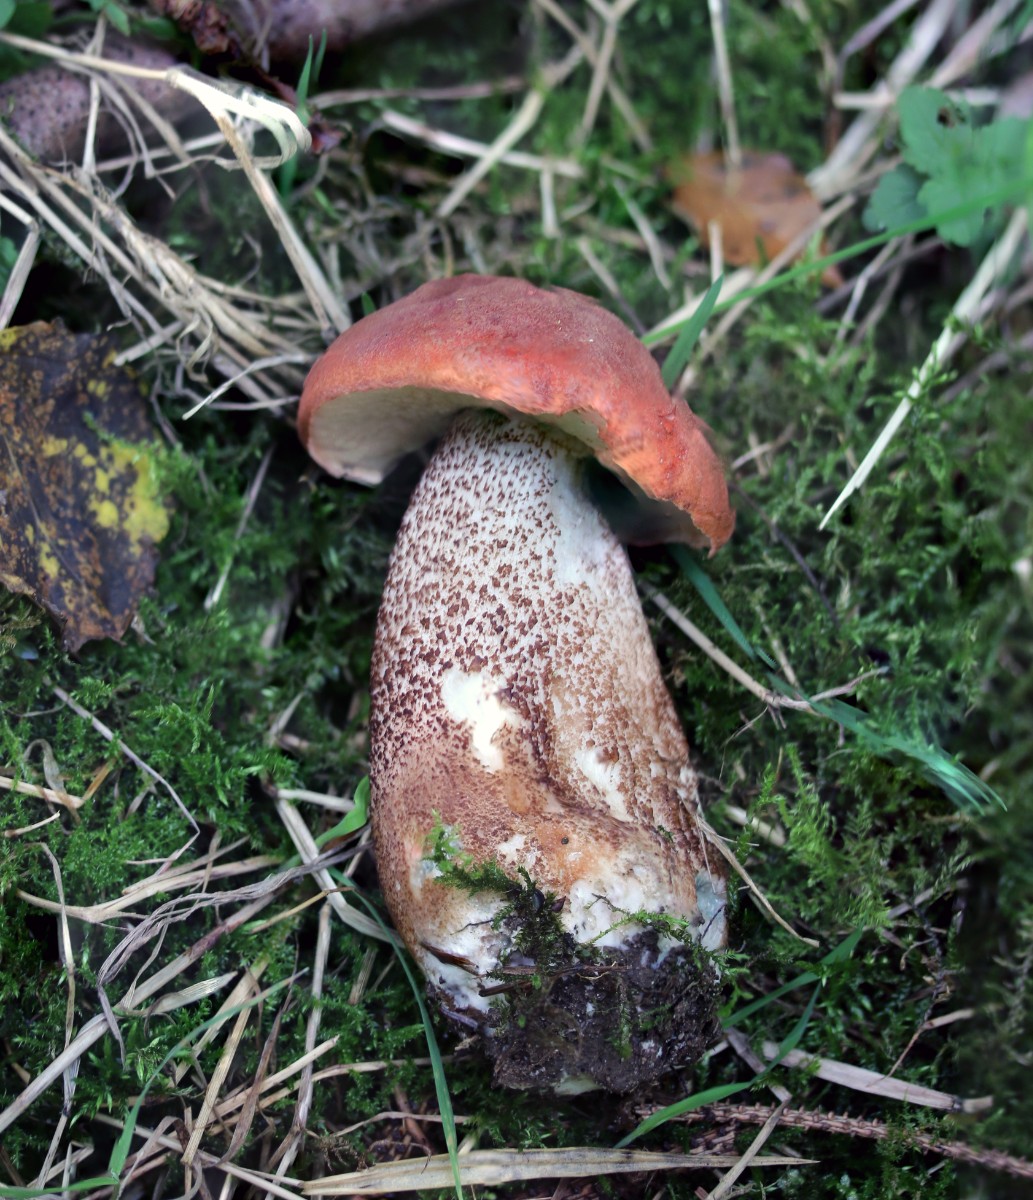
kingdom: Fungi
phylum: Basidiomycota
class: Agaricomycetes
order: Boletales
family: Boletaceae
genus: Leccinum
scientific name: Leccinum aurantiacum
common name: rustrød skælrørhat
